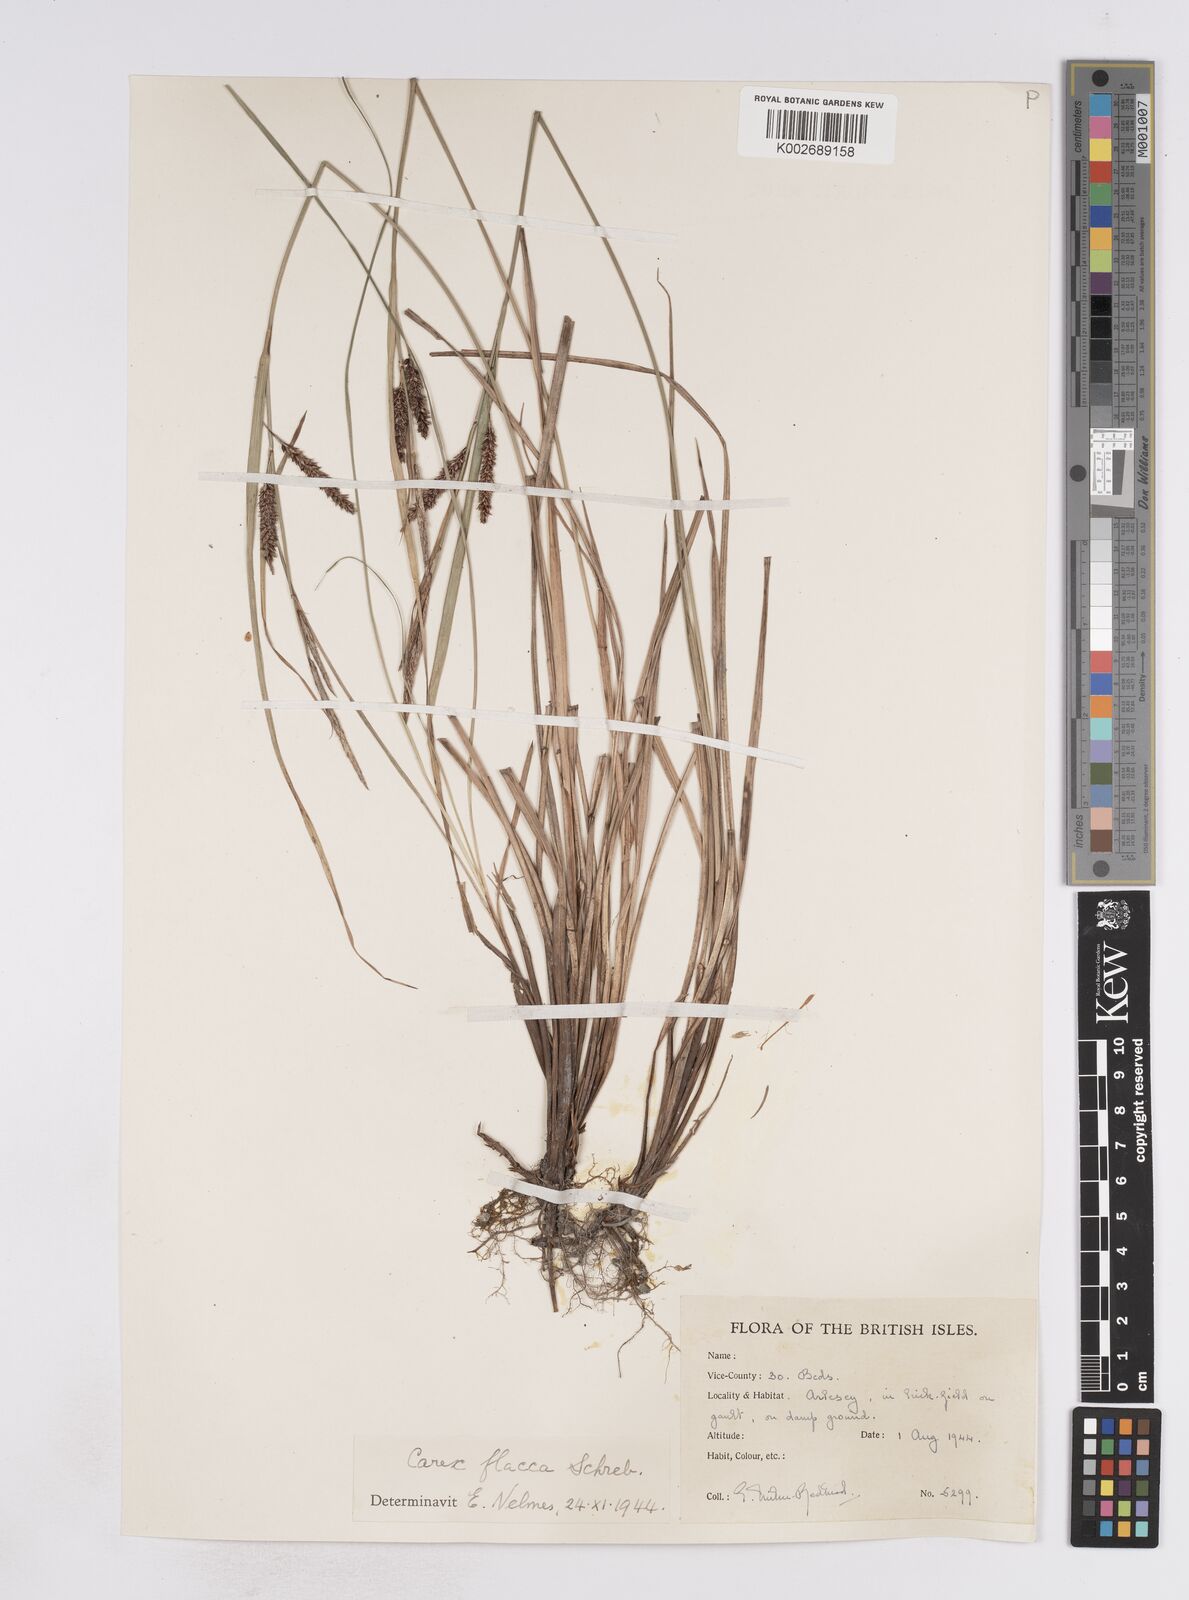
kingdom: Plantae
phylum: Tracheophyta
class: Liliopsida
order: Poales
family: Cyperaceae
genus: Carex
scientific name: Carex flacca
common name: Glaucous sedge
